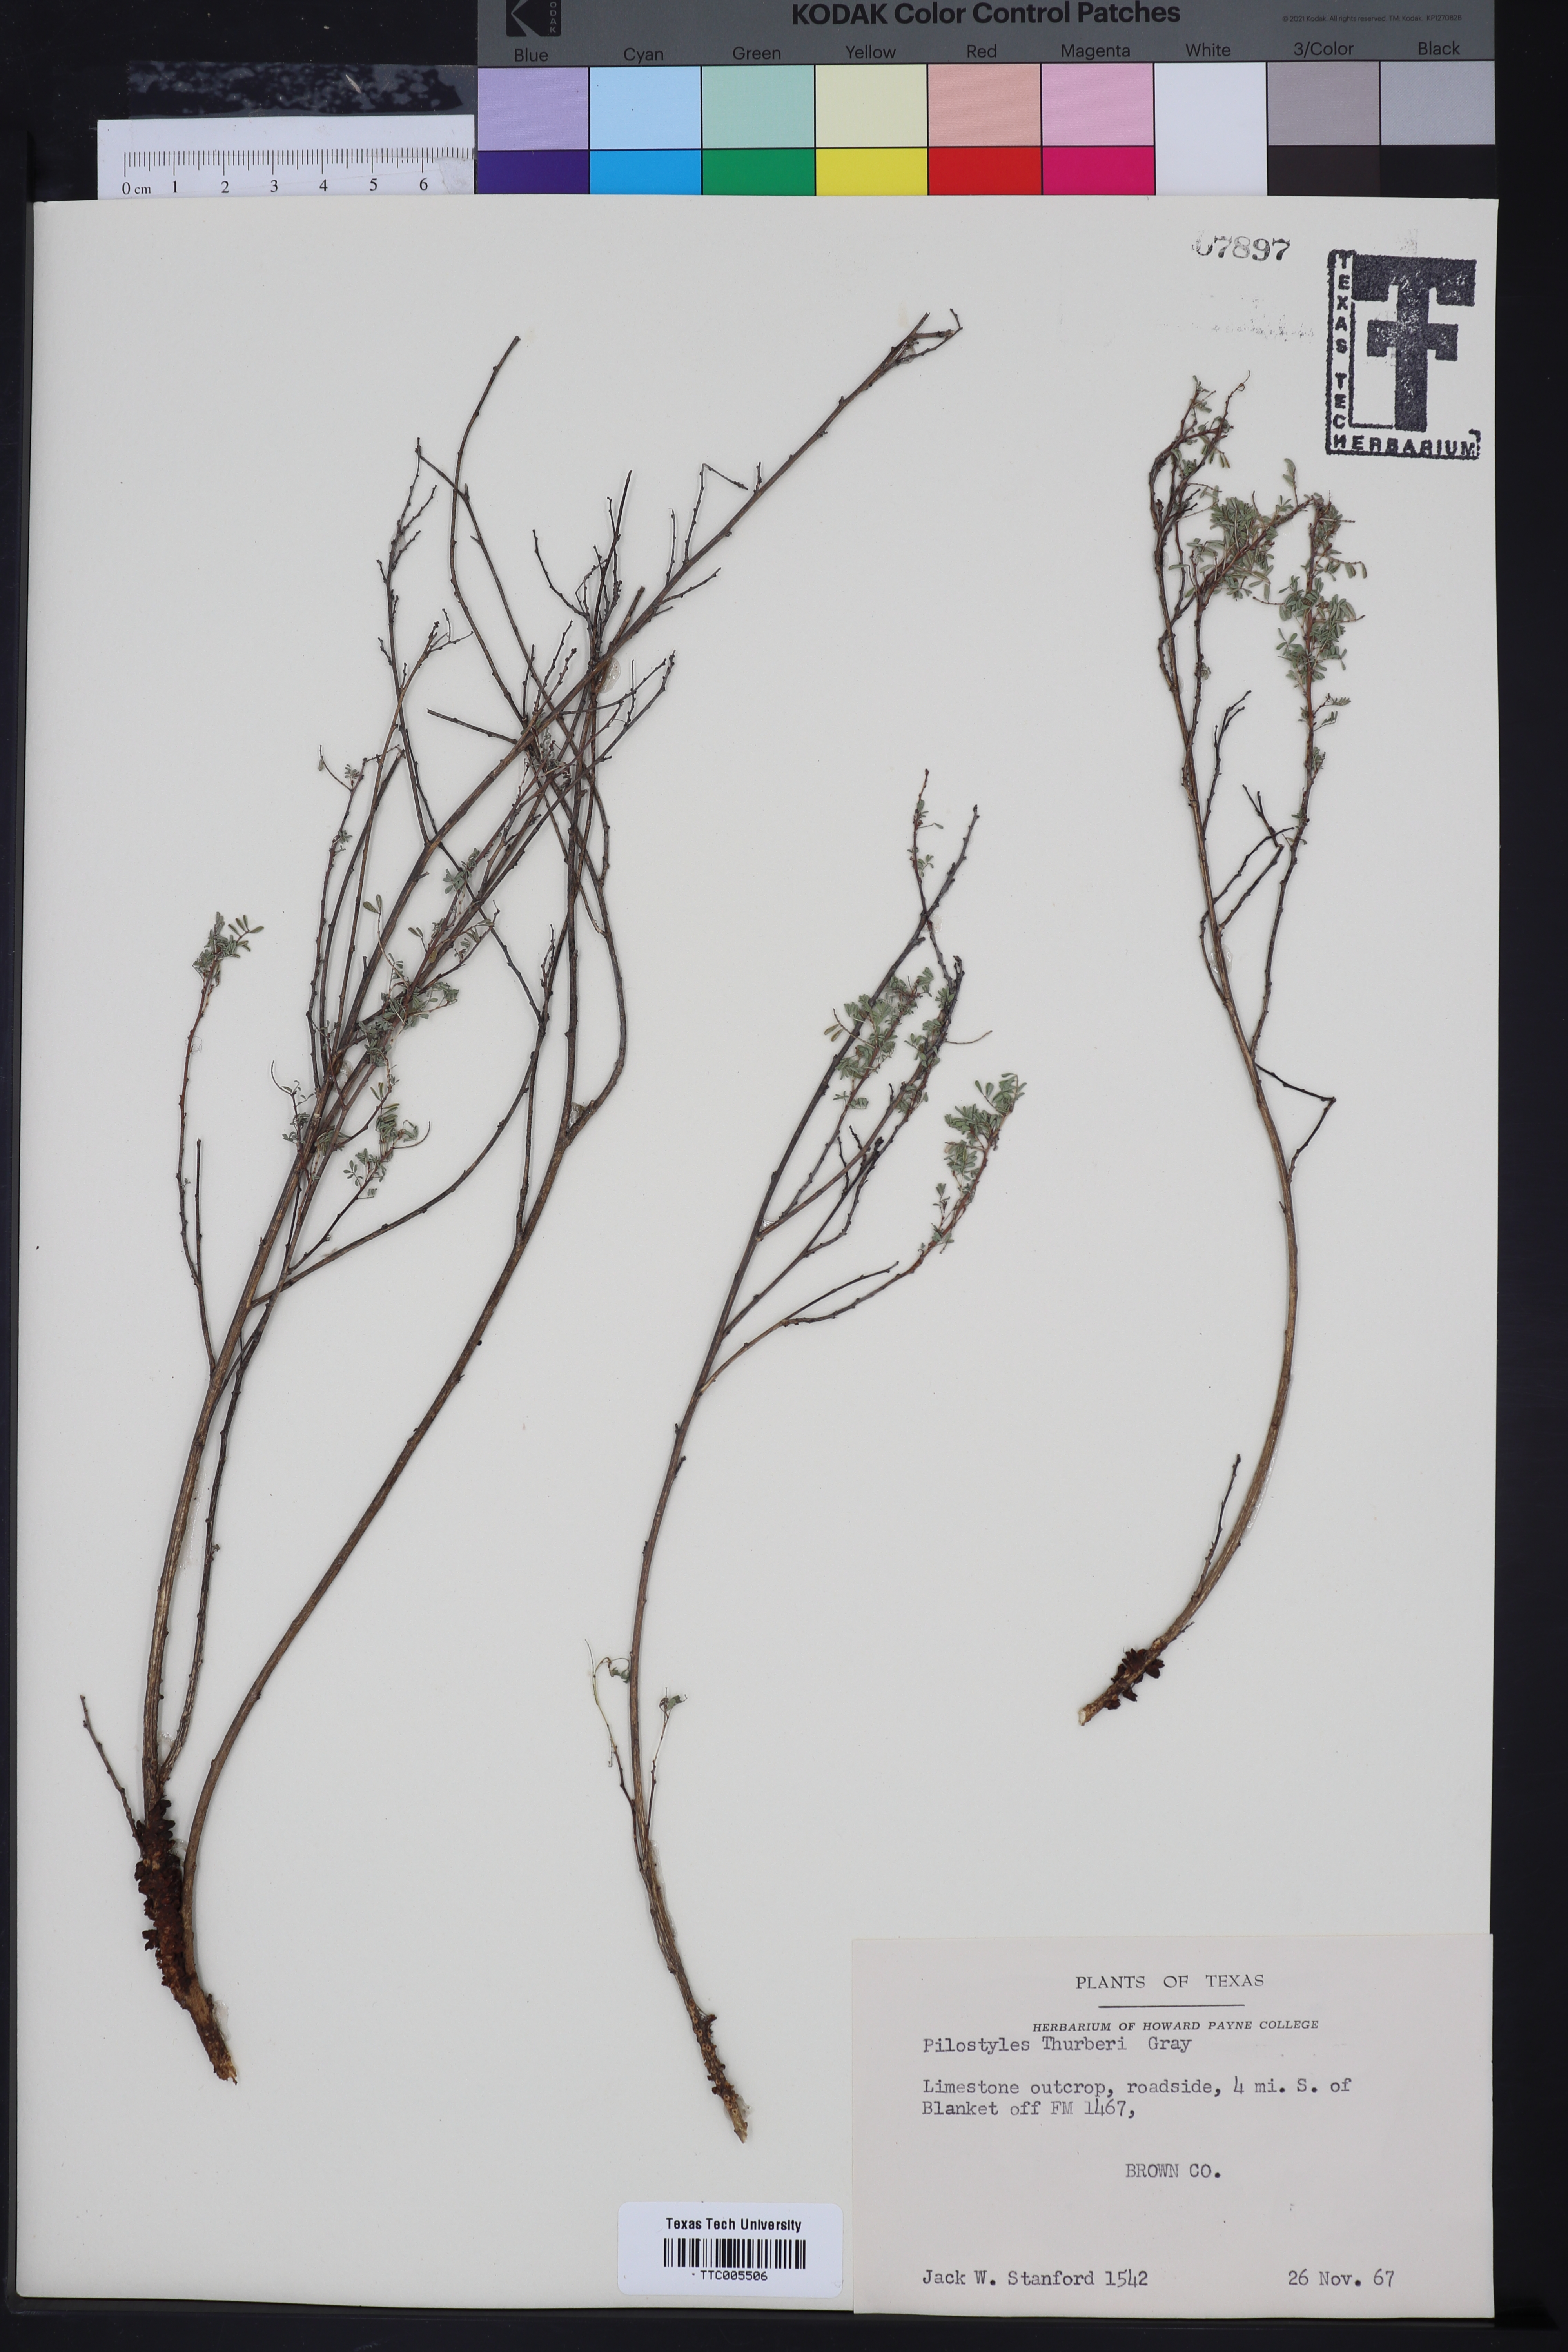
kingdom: Plantae
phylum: Tracheophyta
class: Magnoliopsida
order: Cucurbitales
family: Apodanthaceae
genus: Pilostyles
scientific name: Pilostyles thurberi
